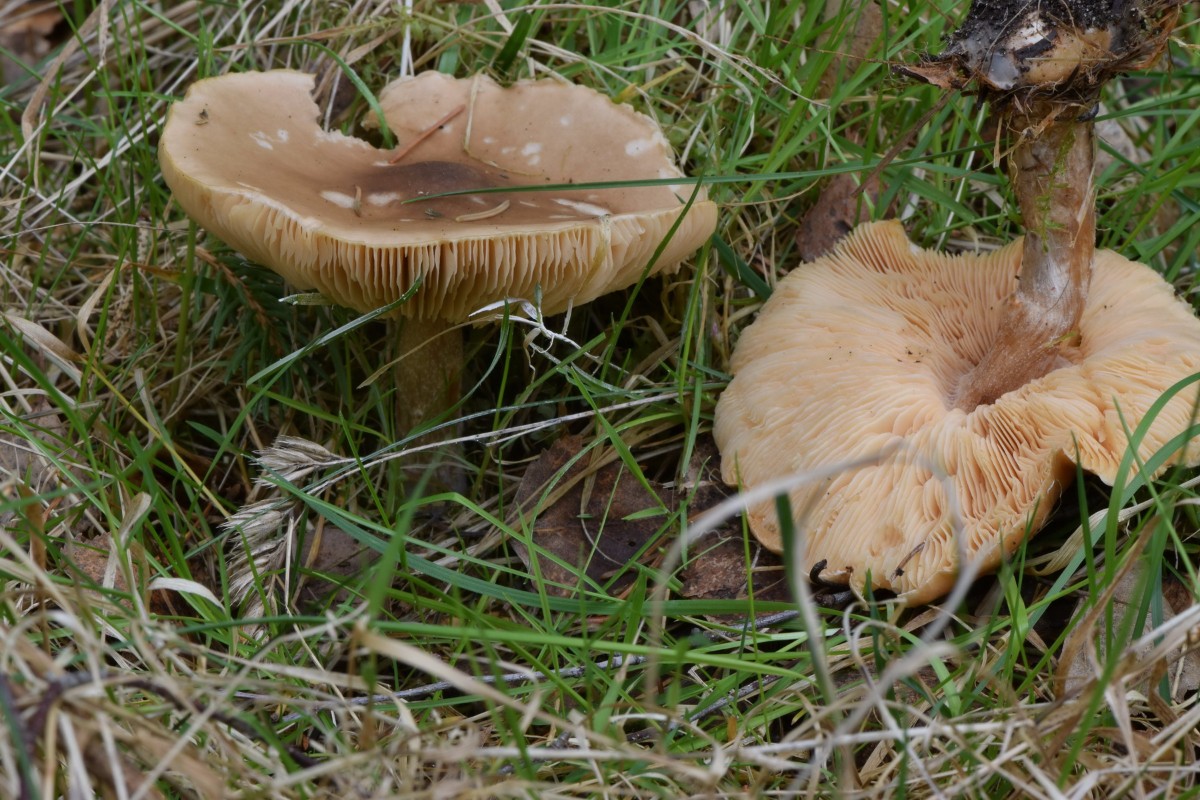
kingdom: Fungi
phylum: Basidiomycota
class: Agaricomycetes
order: Agaricales
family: Tricholomataceae
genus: Melanoleuca
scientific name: Melanoleuca cognata
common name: gyldengrå munkehat
